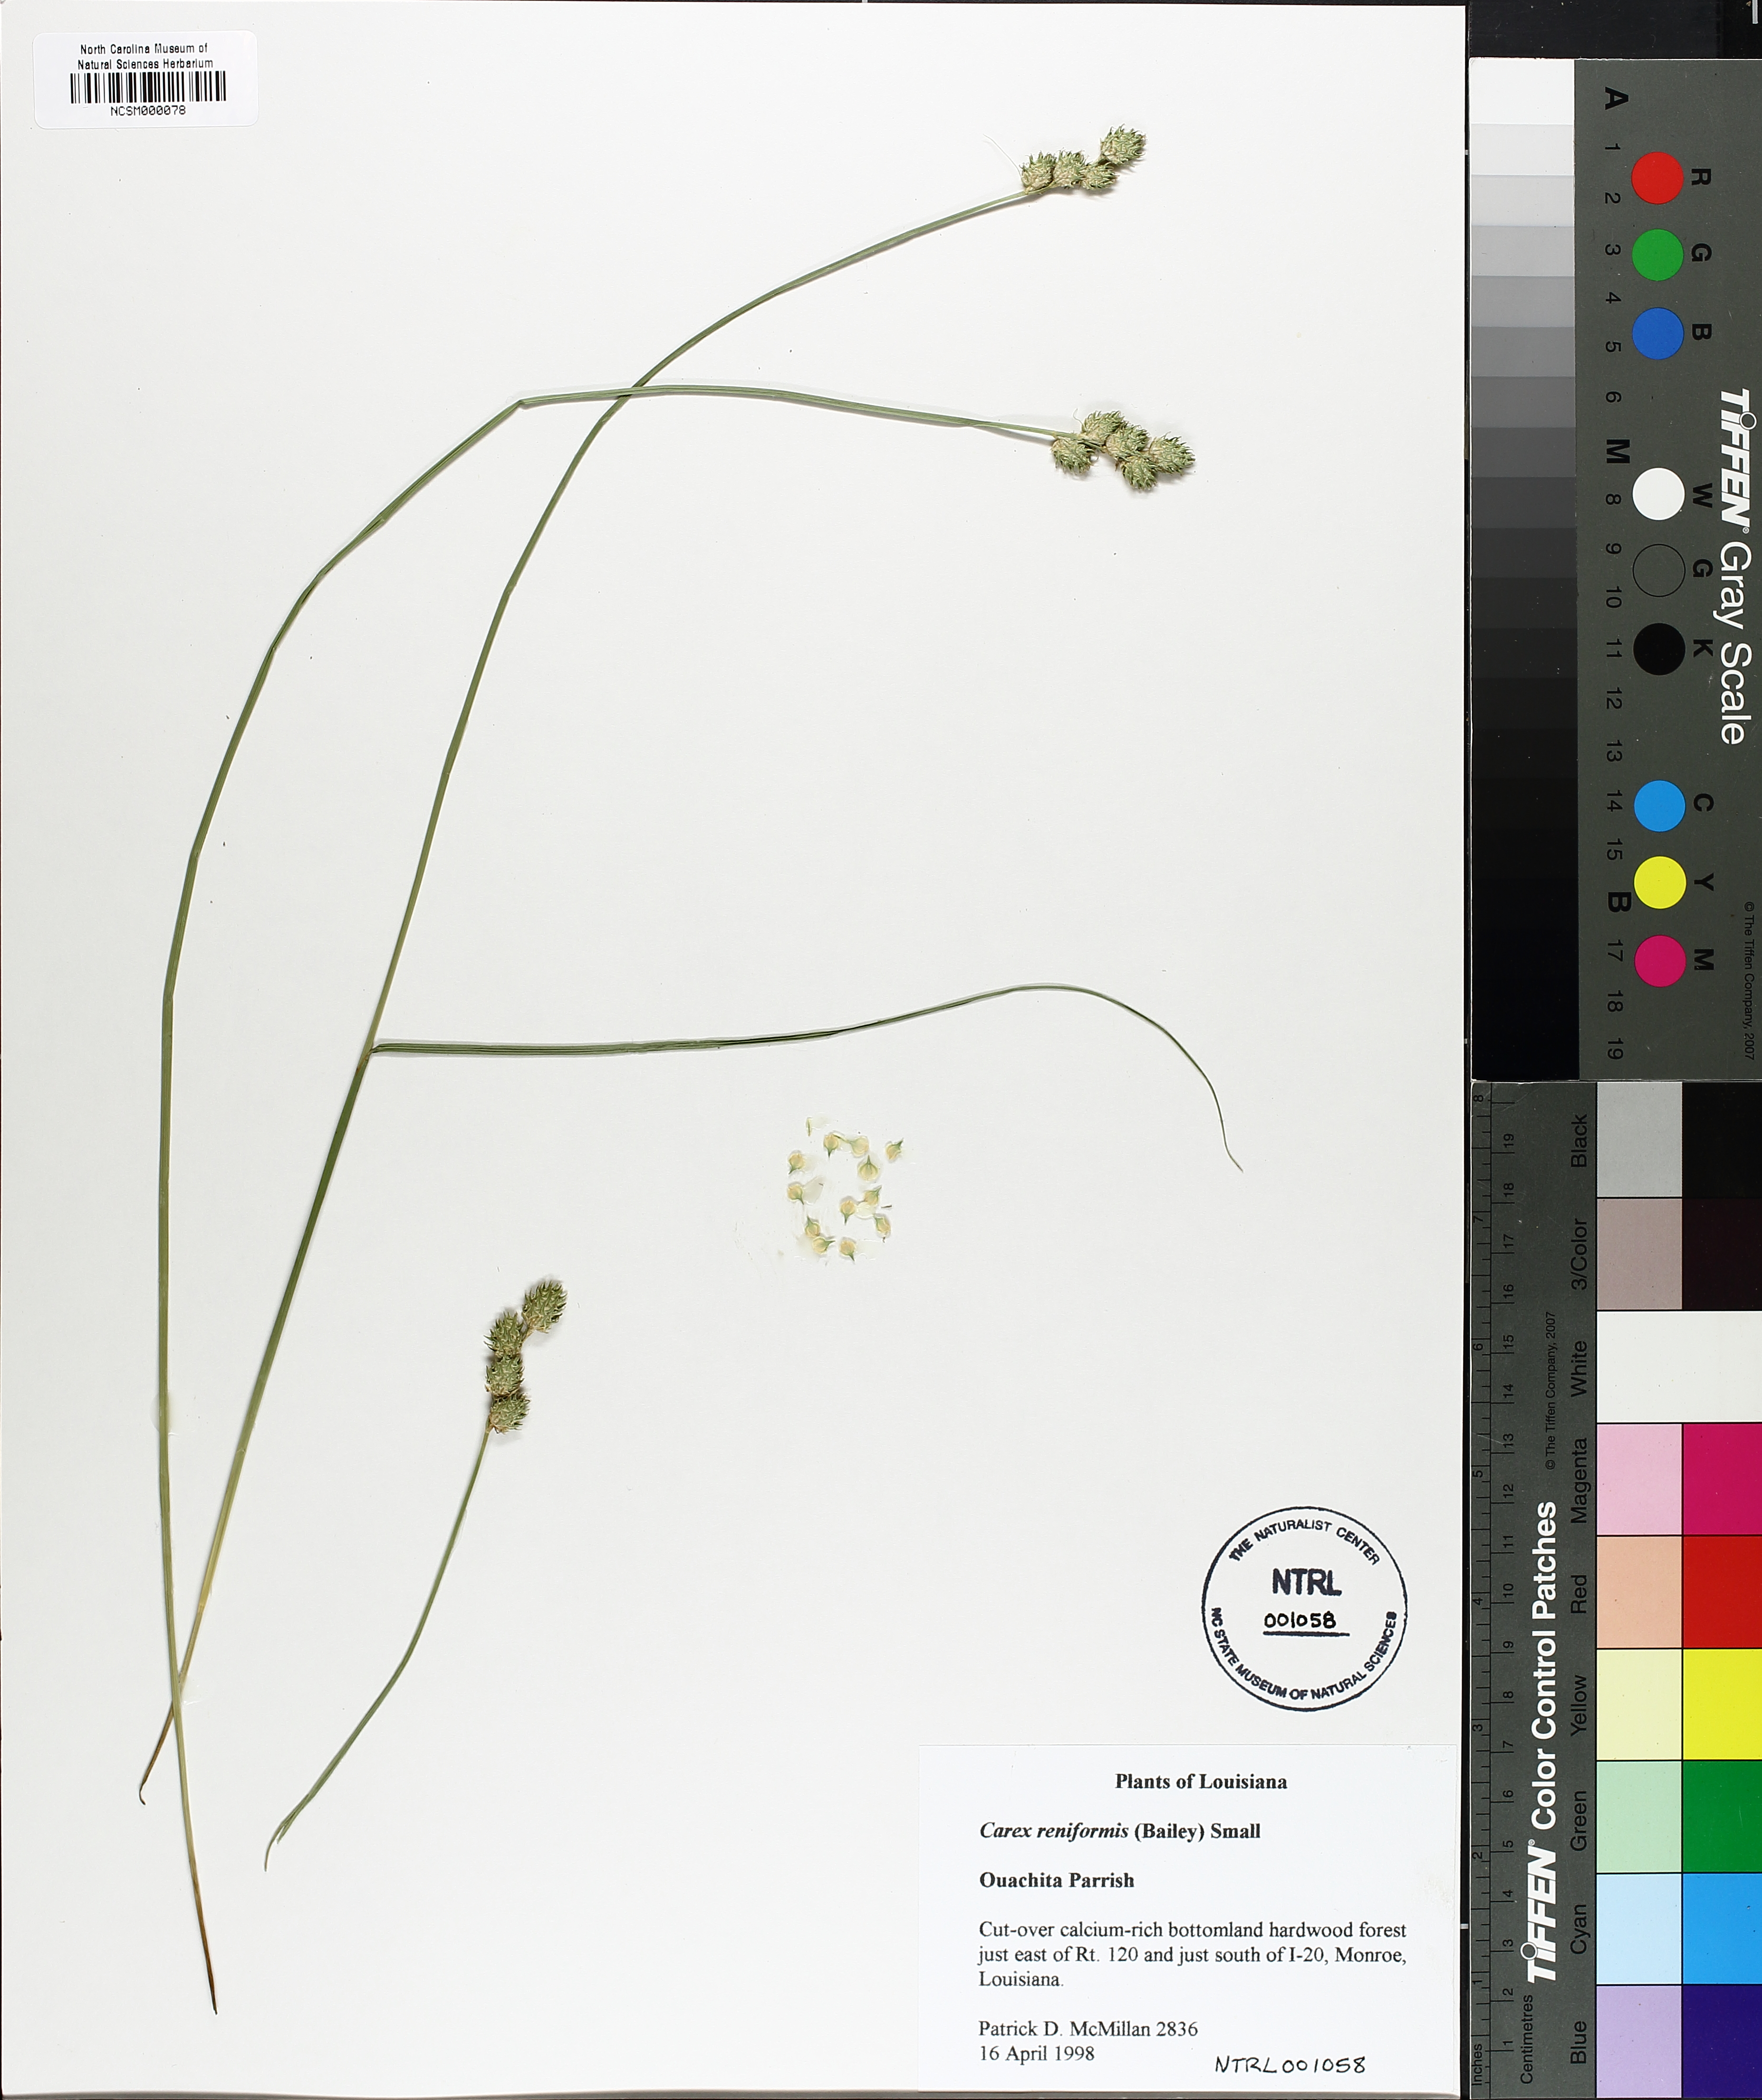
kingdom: Plantae
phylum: Tracheophyta
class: Liliopsida
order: Poales
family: Cyperaceae
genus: Carex
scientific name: Carex reniformis
